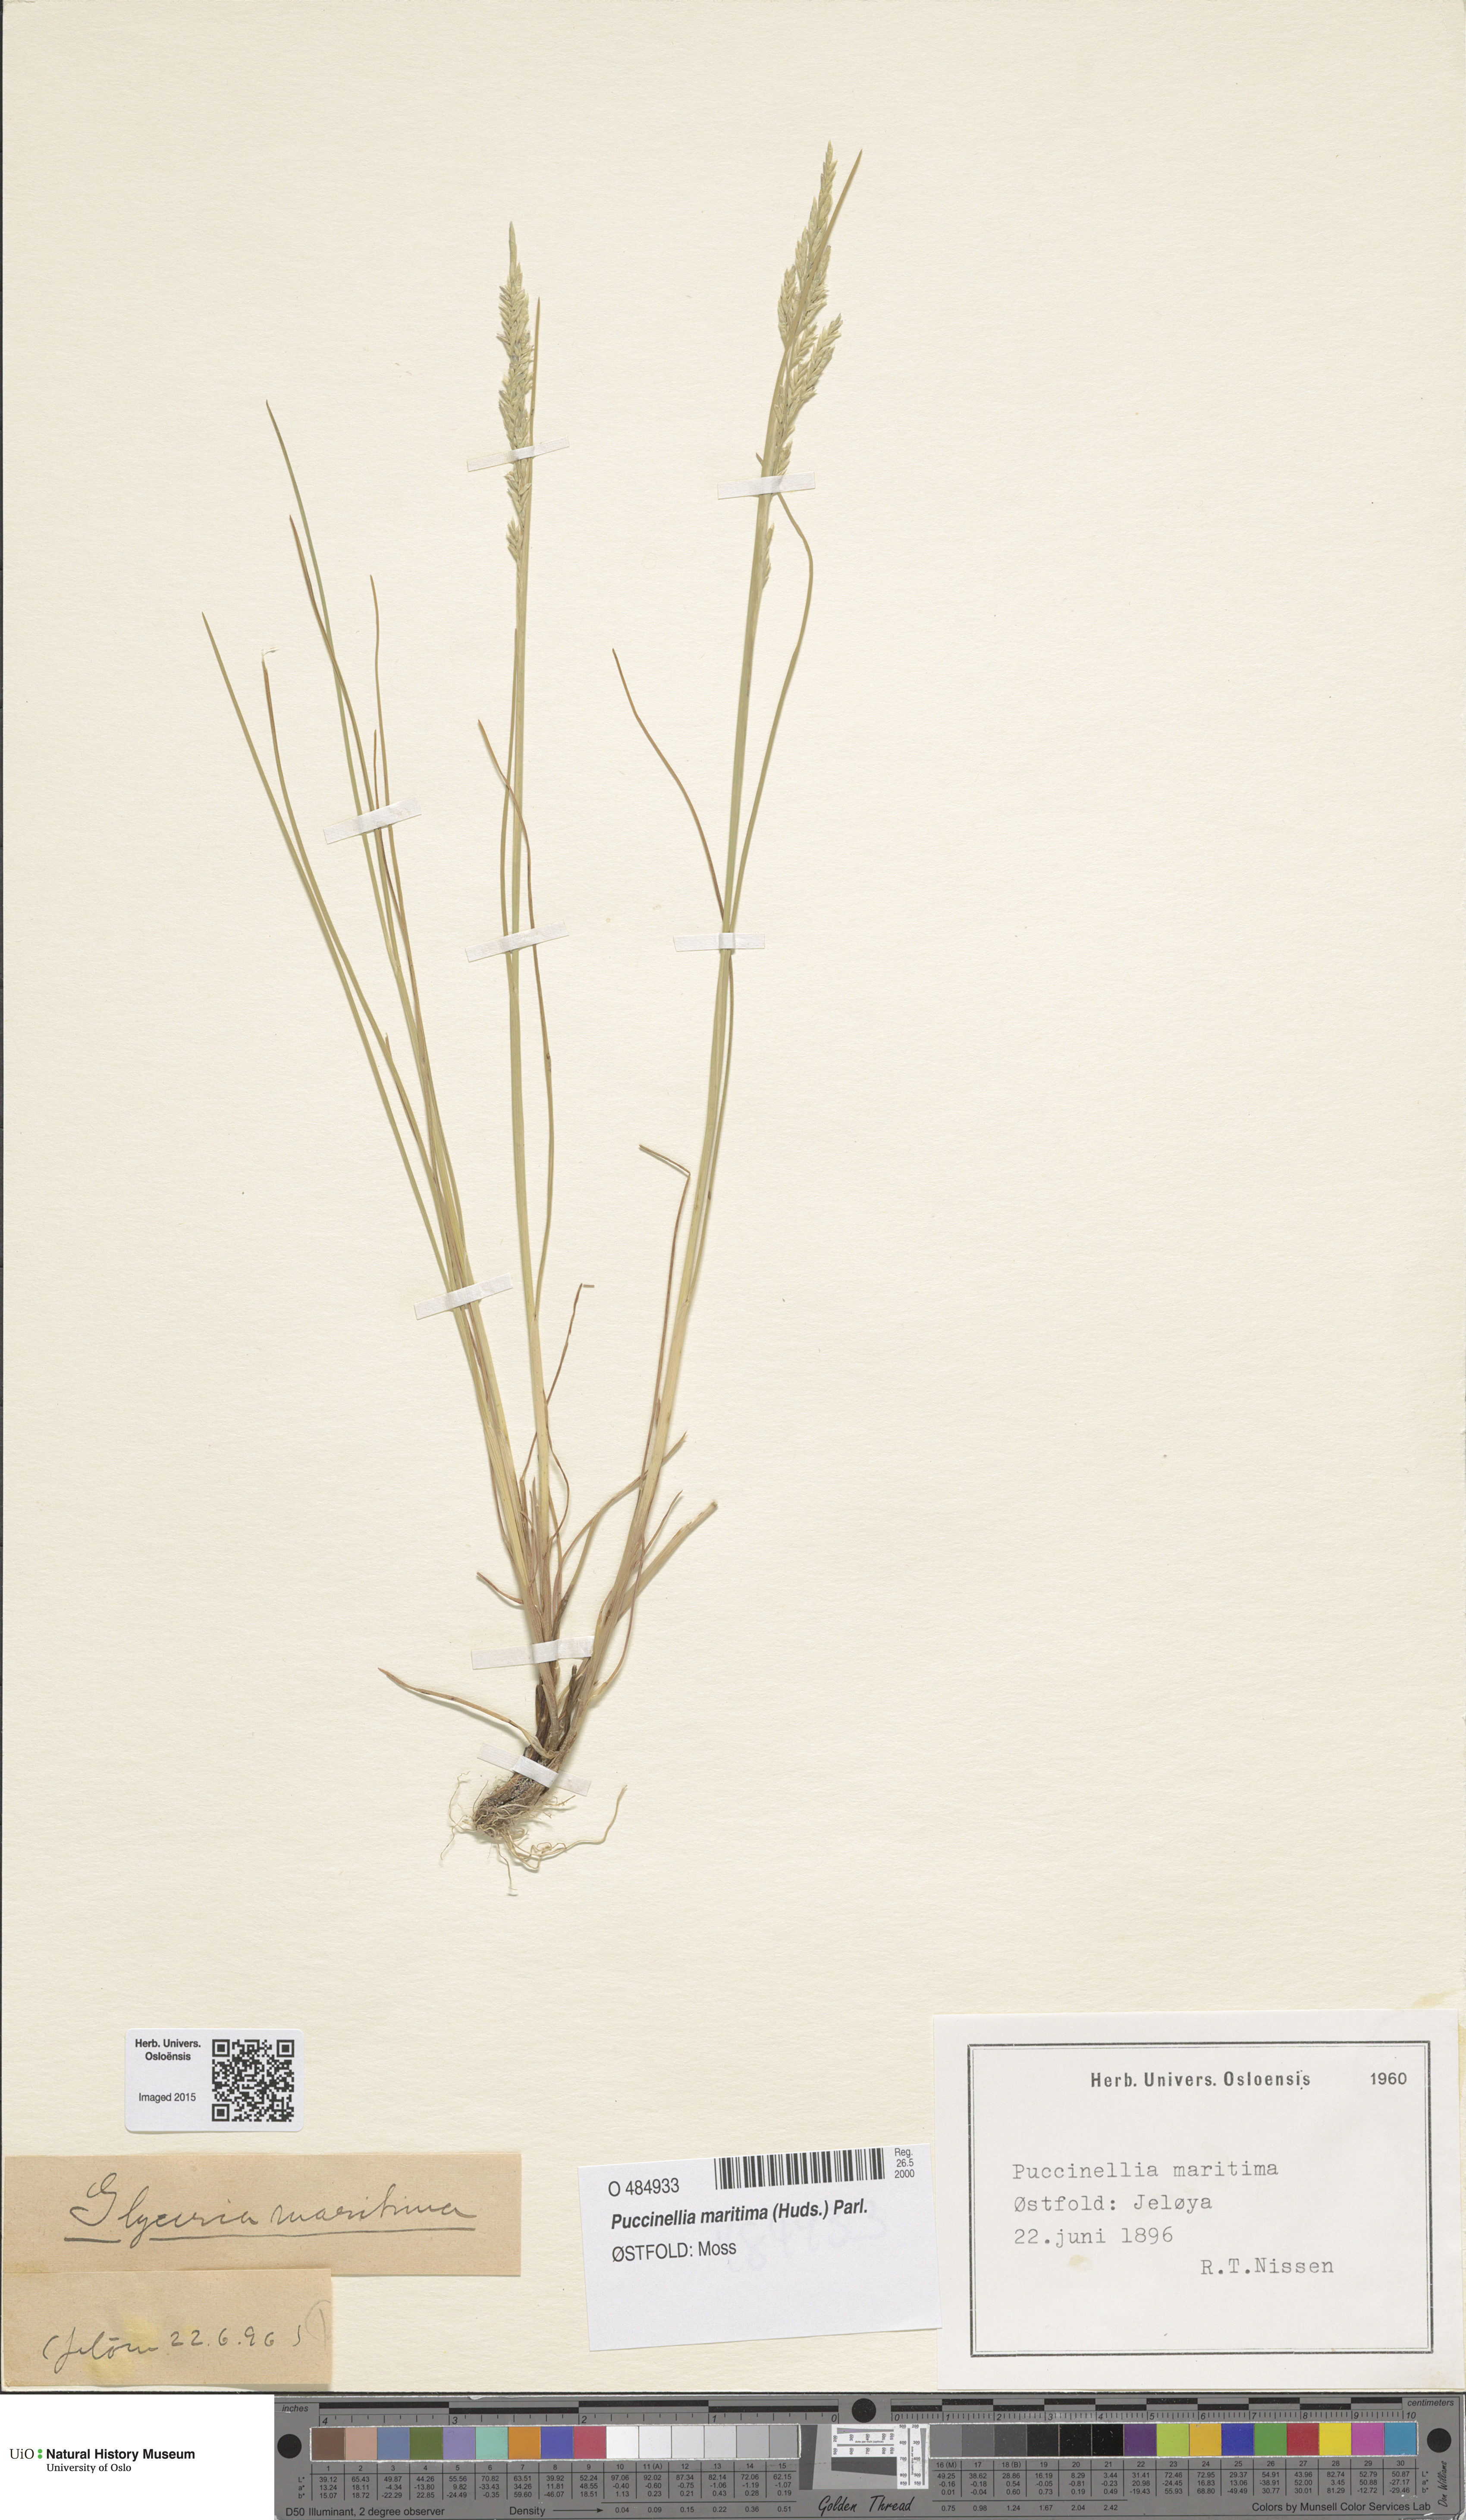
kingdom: Plantae
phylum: Tracheophyta
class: Liliopsida
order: Poales
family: Poaceae
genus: Puccinellia
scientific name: Puccinellia maritima
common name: Common saltmarsh grass
